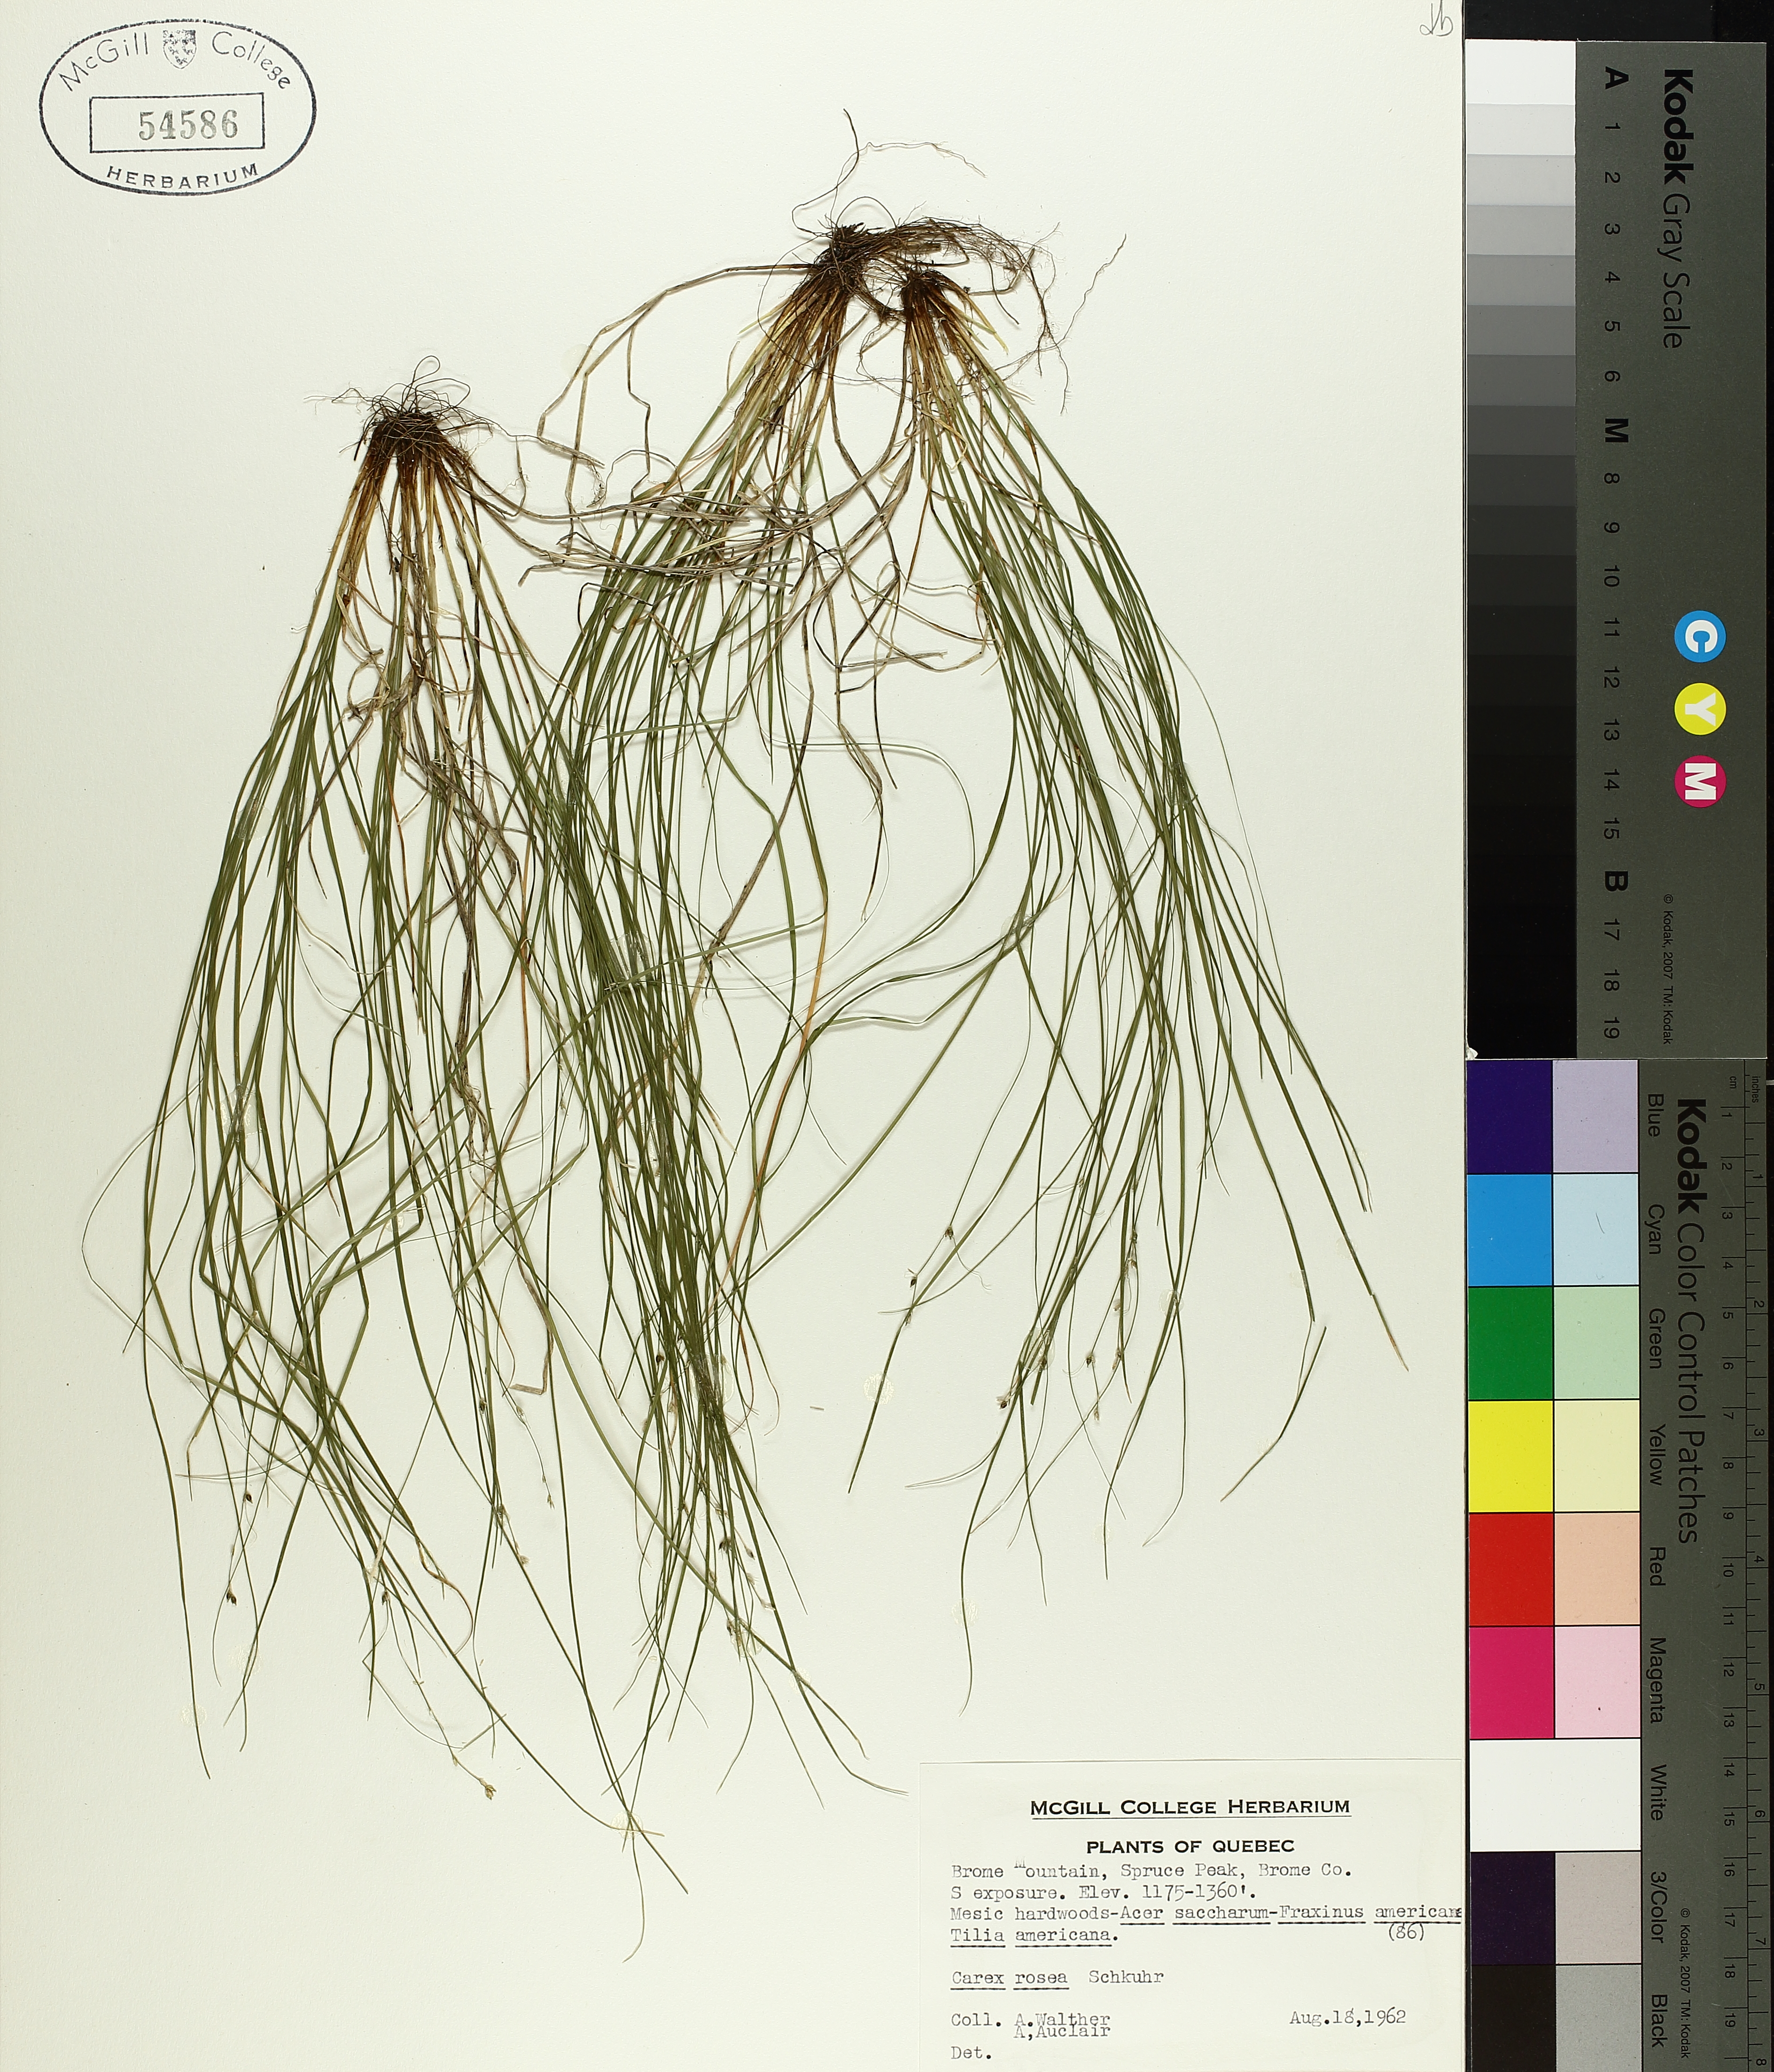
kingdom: Plantae
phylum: Tracheophyta
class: Liliopsida
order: Poales
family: Cyperaceae
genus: Carex
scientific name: Carex rosea
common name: Curly-styled wood sedge
